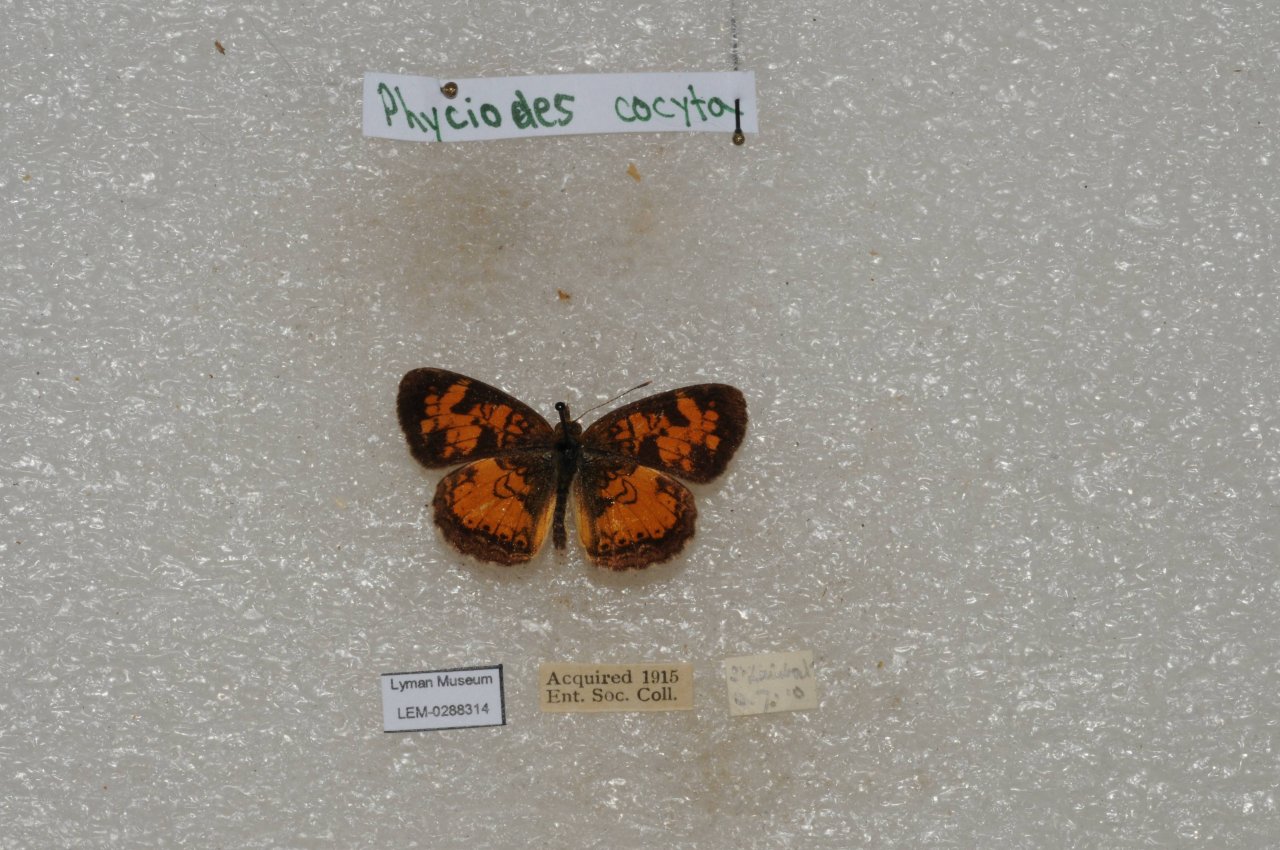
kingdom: Animalia
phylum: Arthropoda
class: Insecta
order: Lepidoptera
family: Nymphalidae
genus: Phyciodes
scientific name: Phyciodes tharos
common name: Northern Crescent
